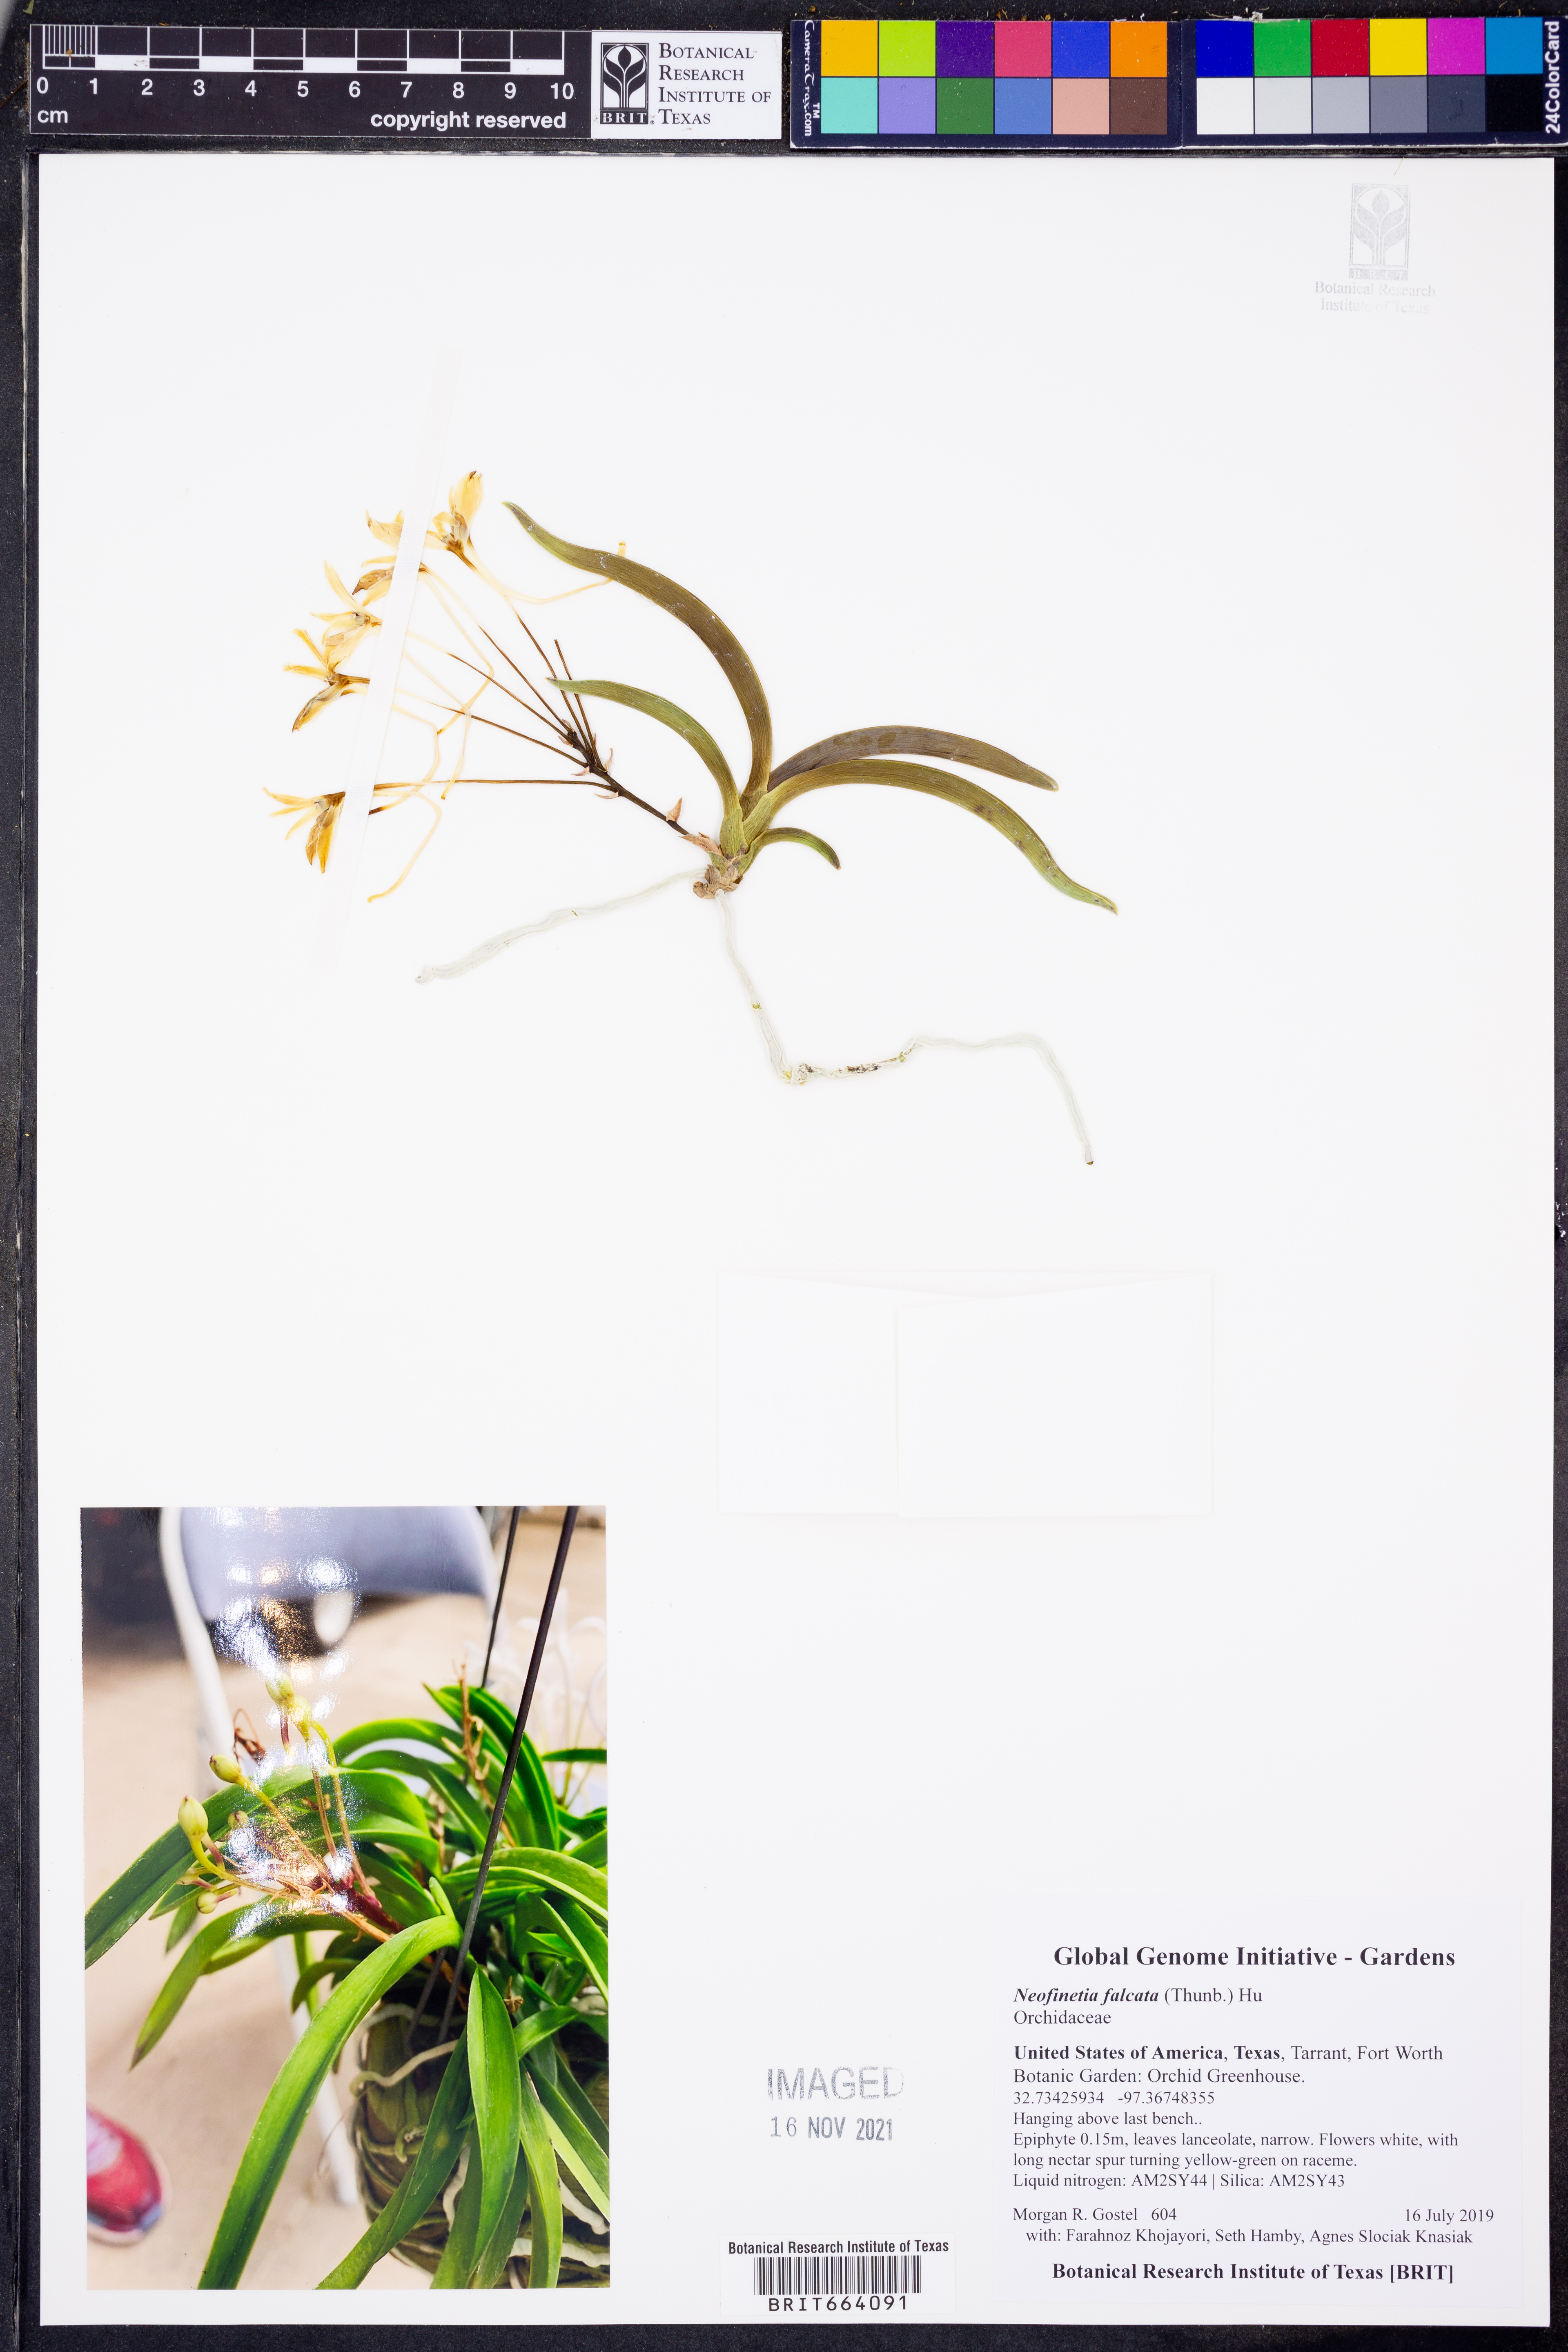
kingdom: Plantae
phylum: Tracheophyta
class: Liliopsida
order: Asparagales
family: Orchidaceae
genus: Vanda
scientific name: Vanda falcata
